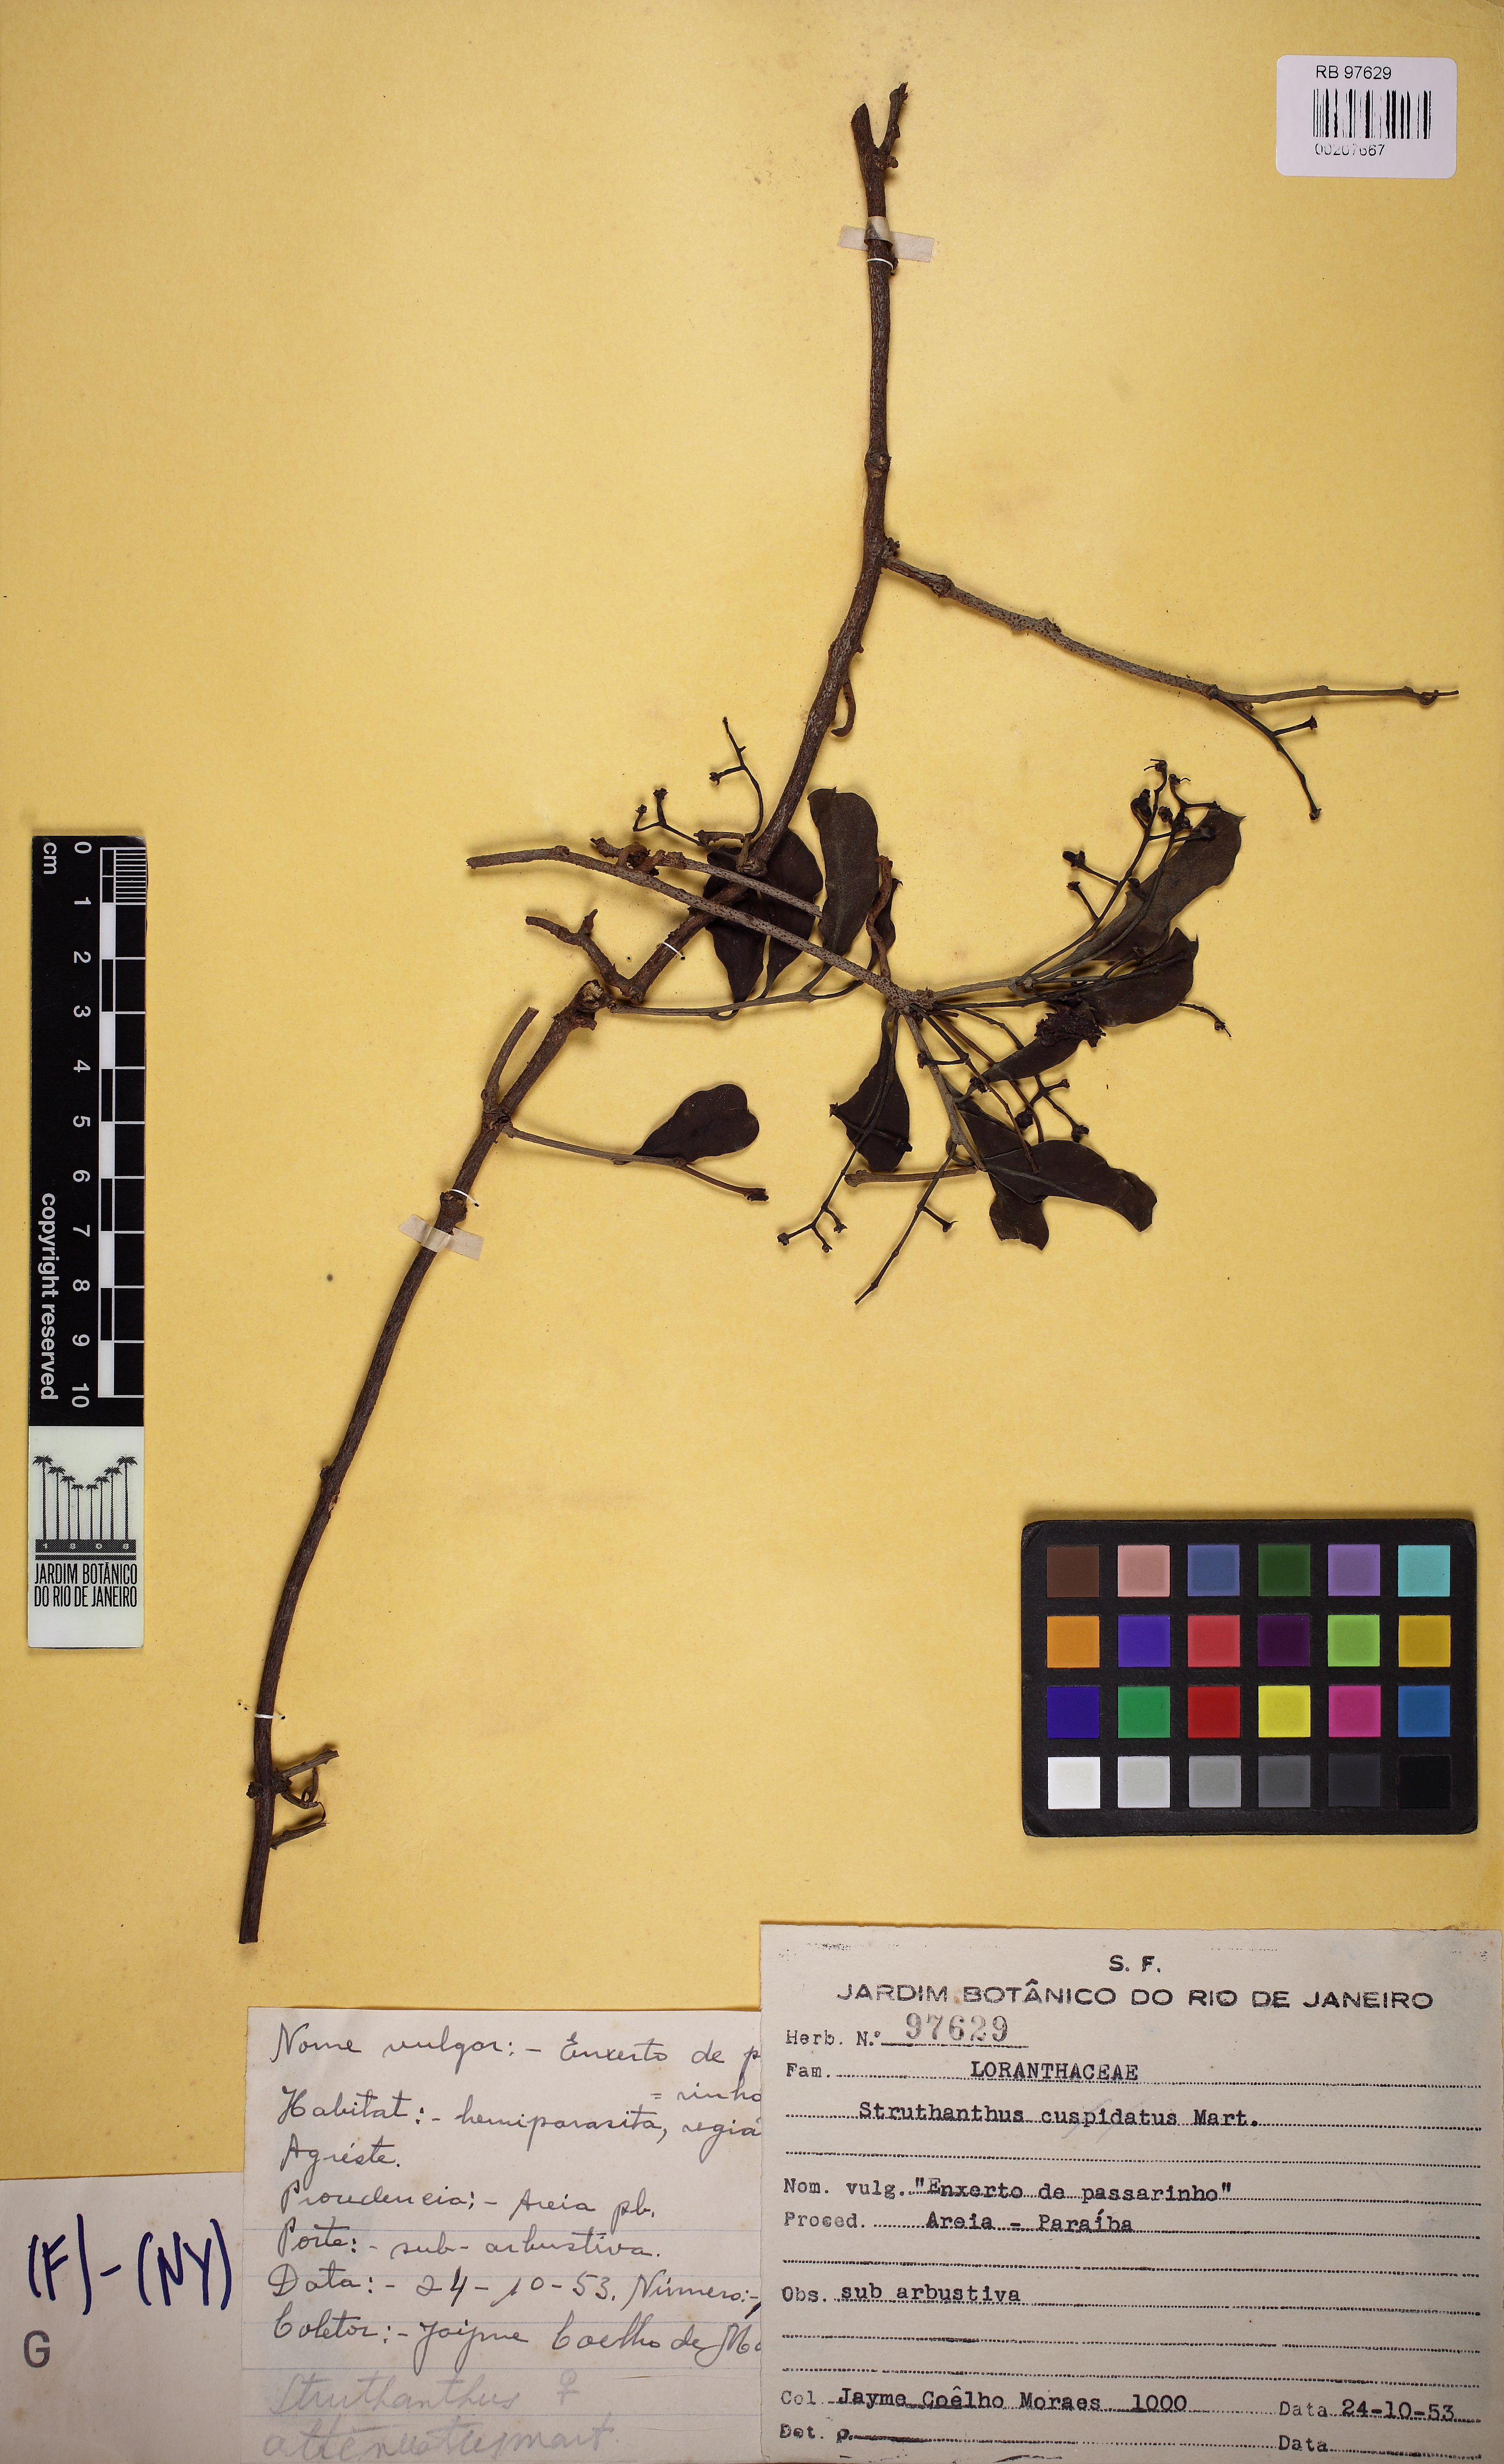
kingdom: Plantae
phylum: Tracheophyta
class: Magnoliopsida
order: Santalales
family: Loranthaceae
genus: Struthanthus
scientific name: Struthanthus cuspidatus
